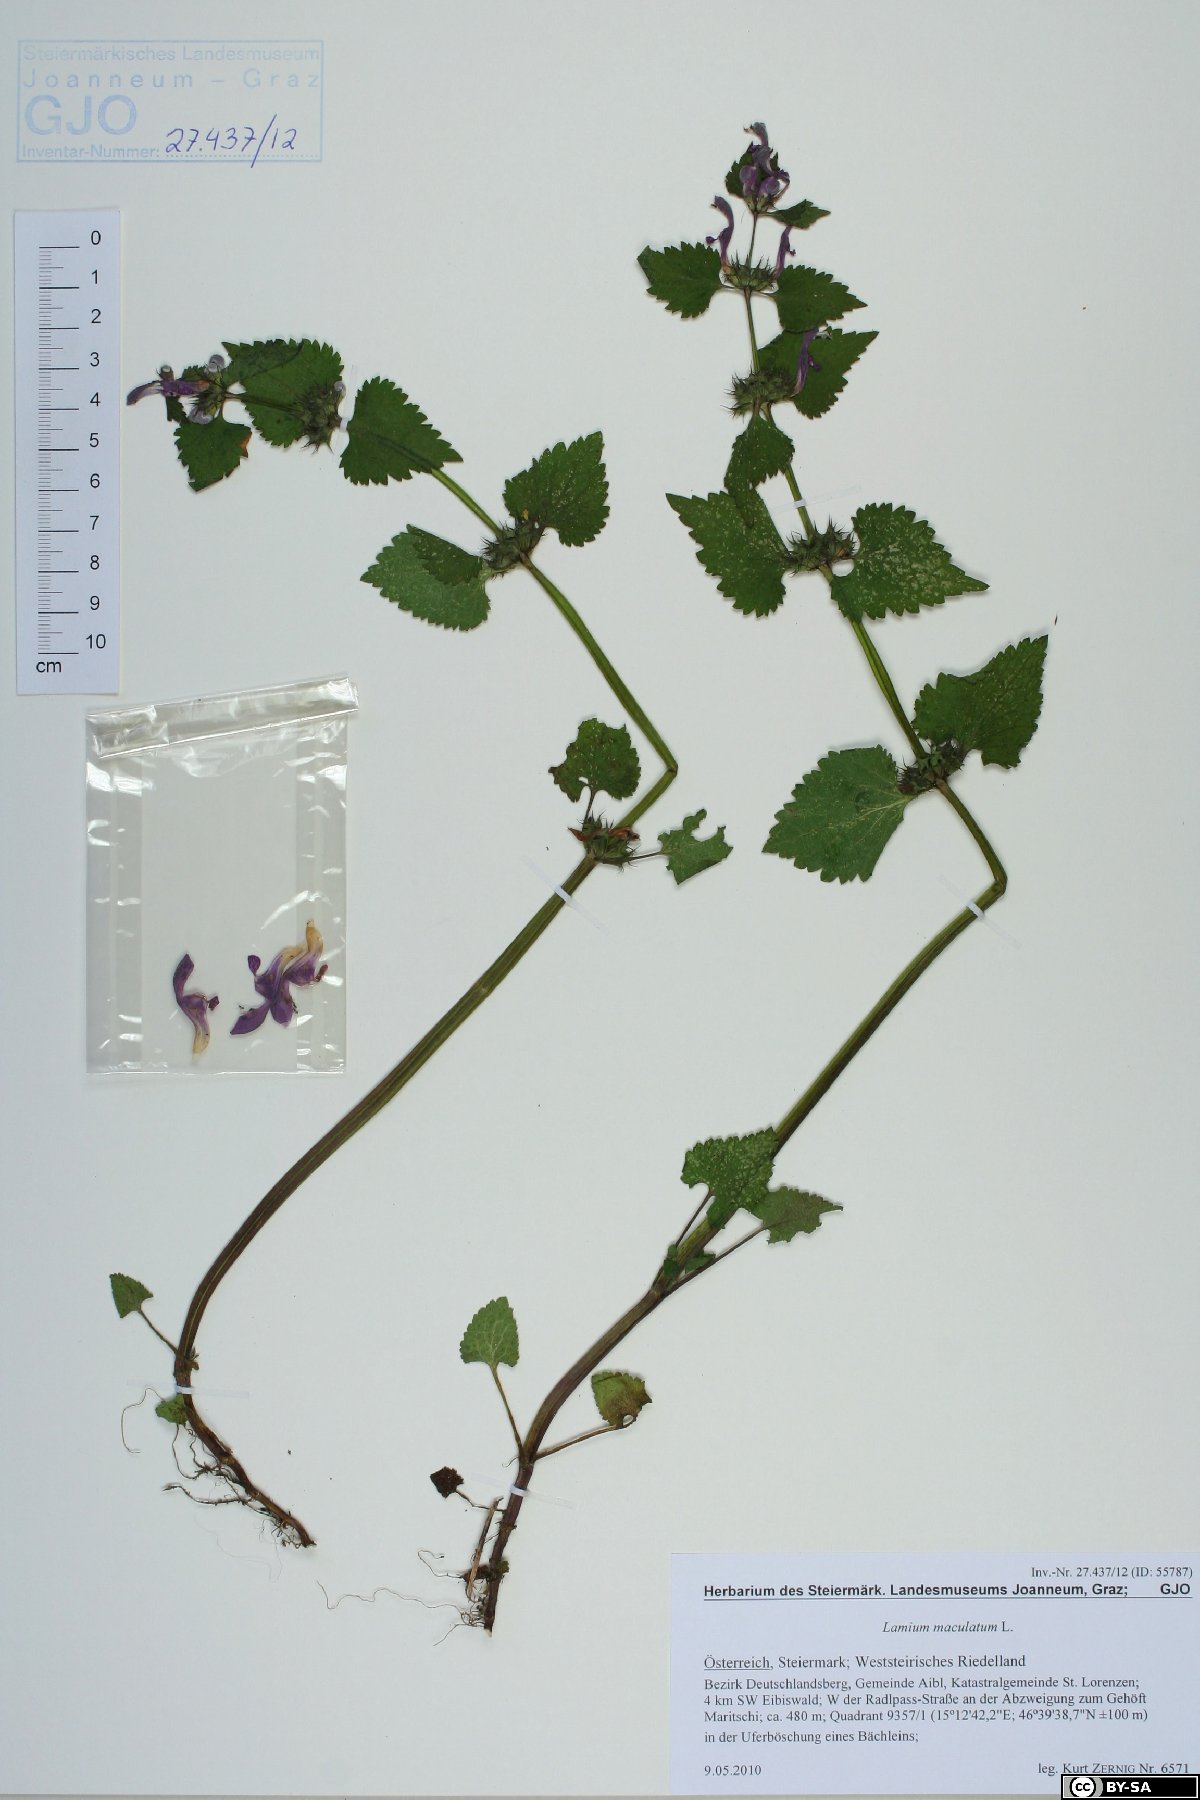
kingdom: Plantae
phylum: Tracheophyta
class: Magnoliopsida
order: Lamiales
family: Lamiaceae
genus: Lamium
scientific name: Lamium maculatum
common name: Spotted dead-nettle
